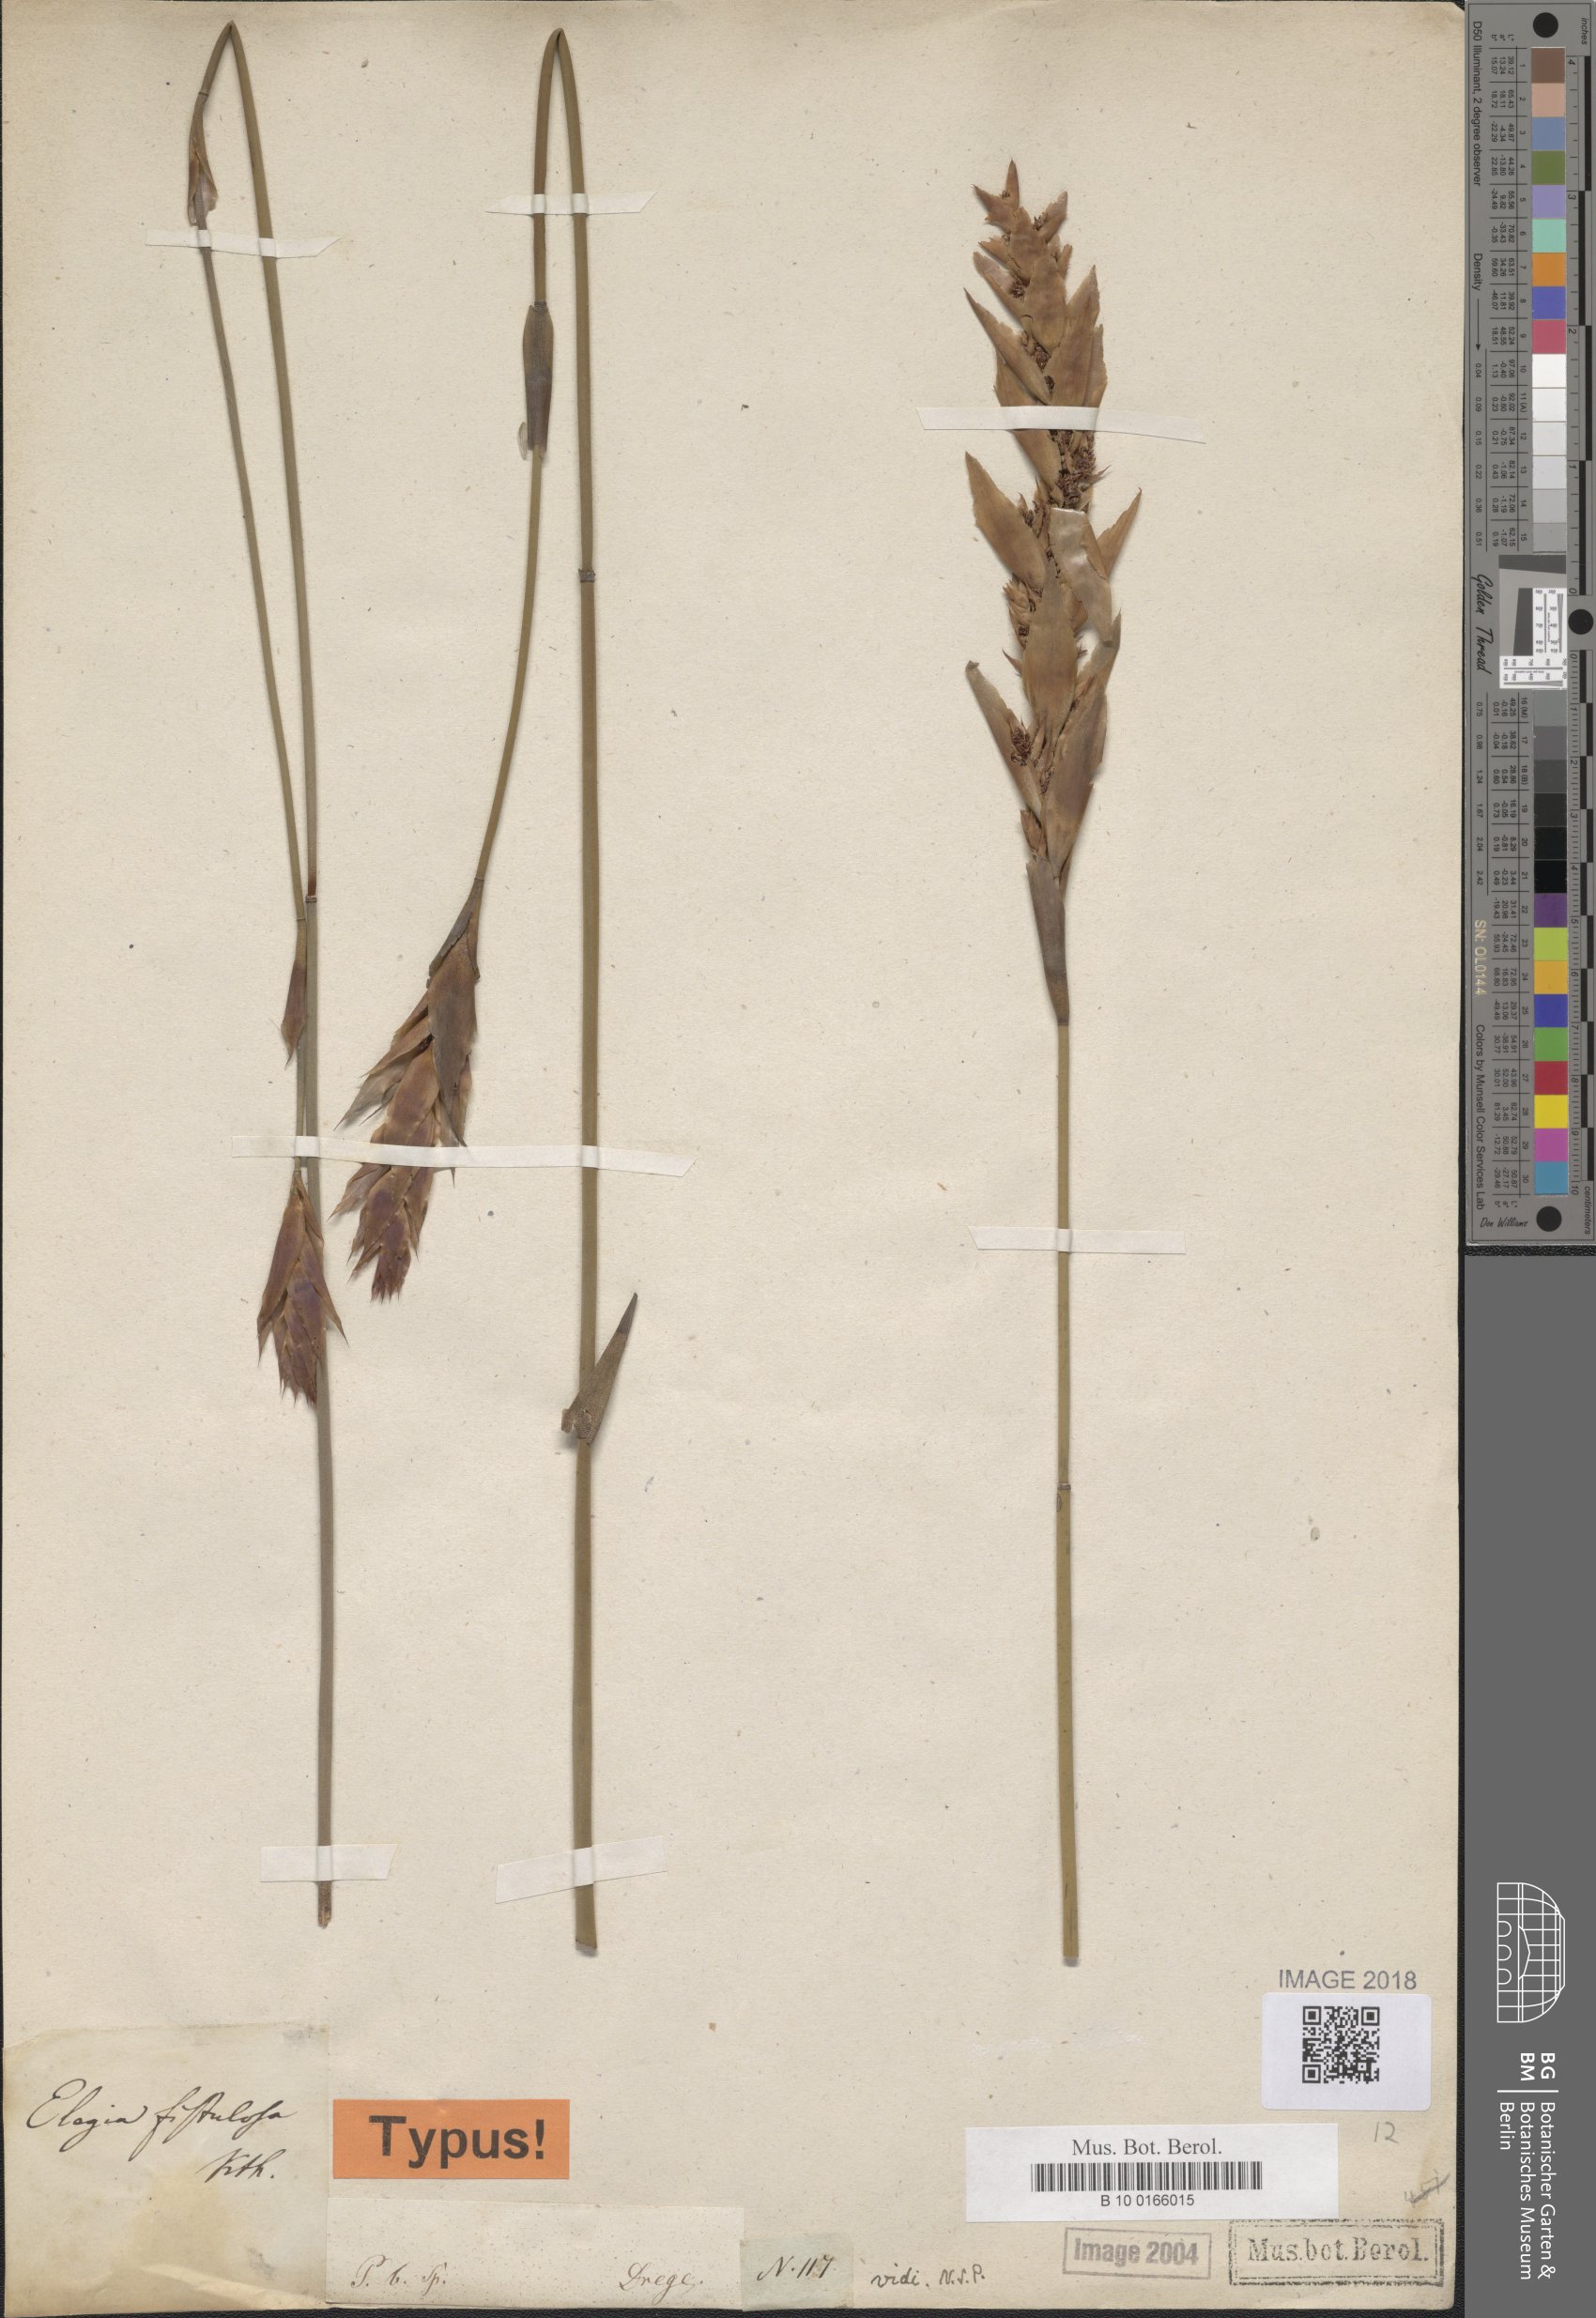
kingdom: Plantae
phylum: Tracheophyta
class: Liliopsida
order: Poales
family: Restionaceae
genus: Elegia
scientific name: Elegia fistulosa
